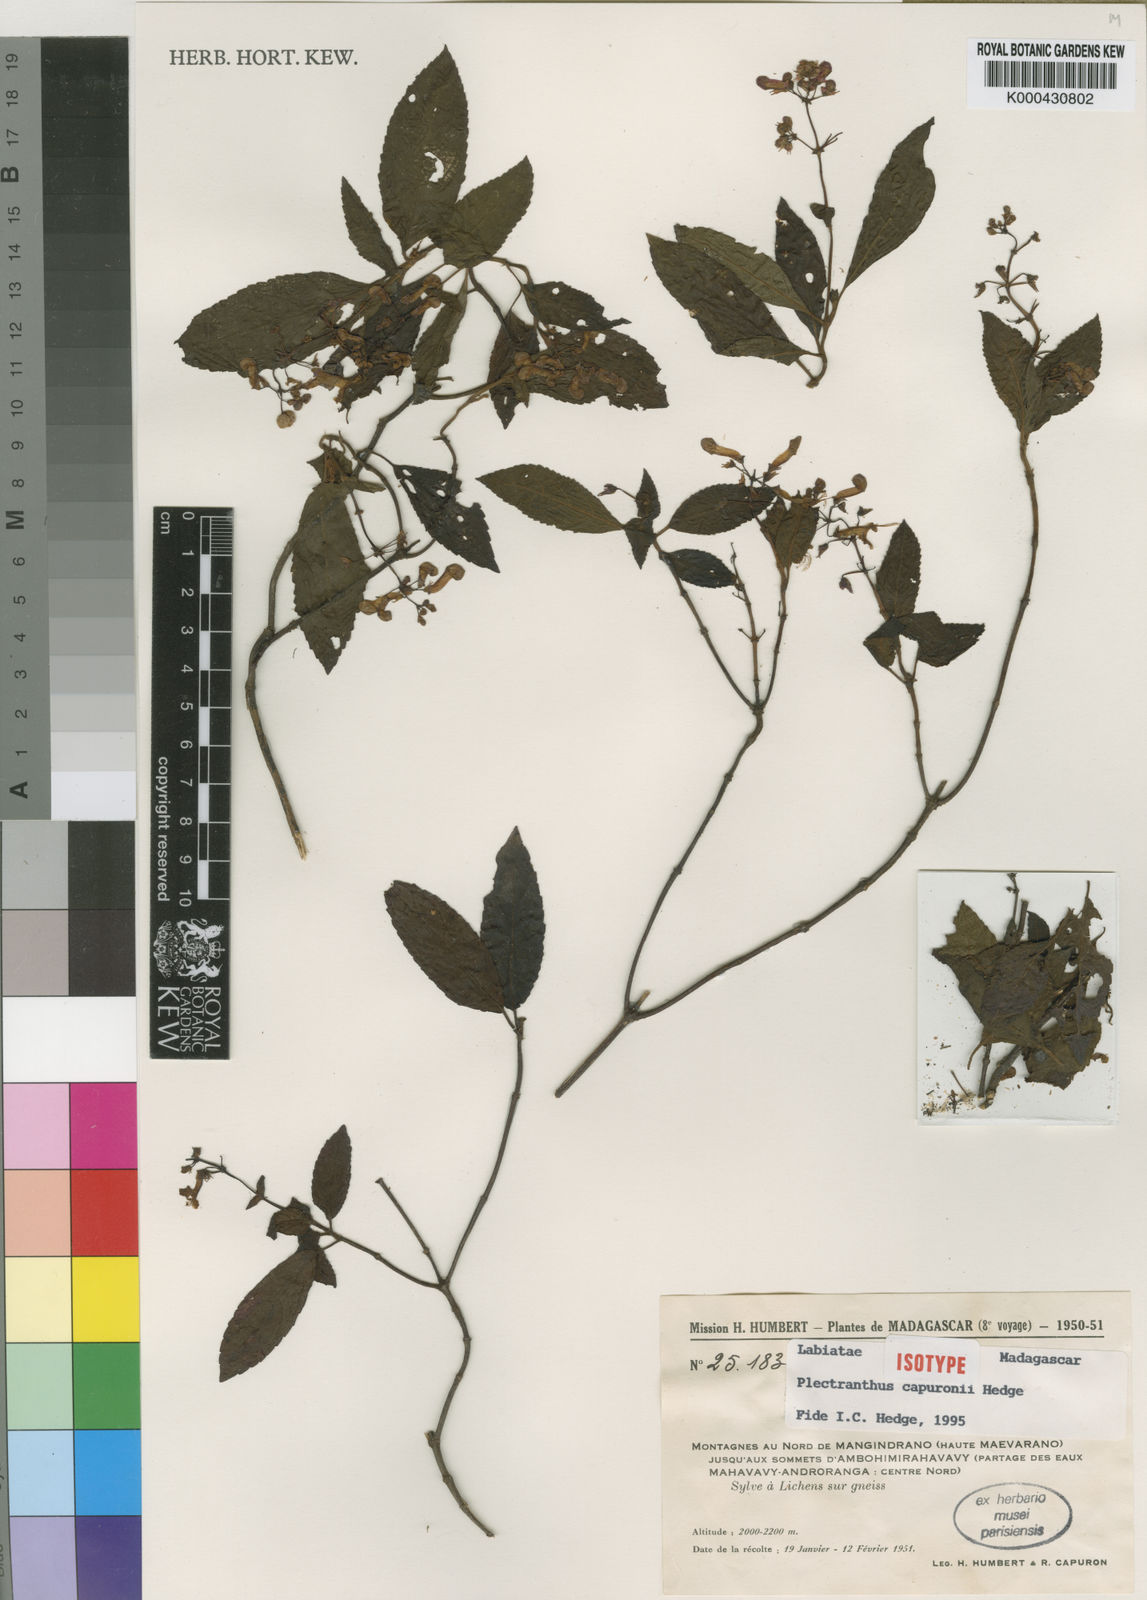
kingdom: Plantae
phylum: Tracheophyta
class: Magnoliopsida
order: Lamiales
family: Lamiaceae
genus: Plectranthus
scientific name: Plectranthus capuronii
